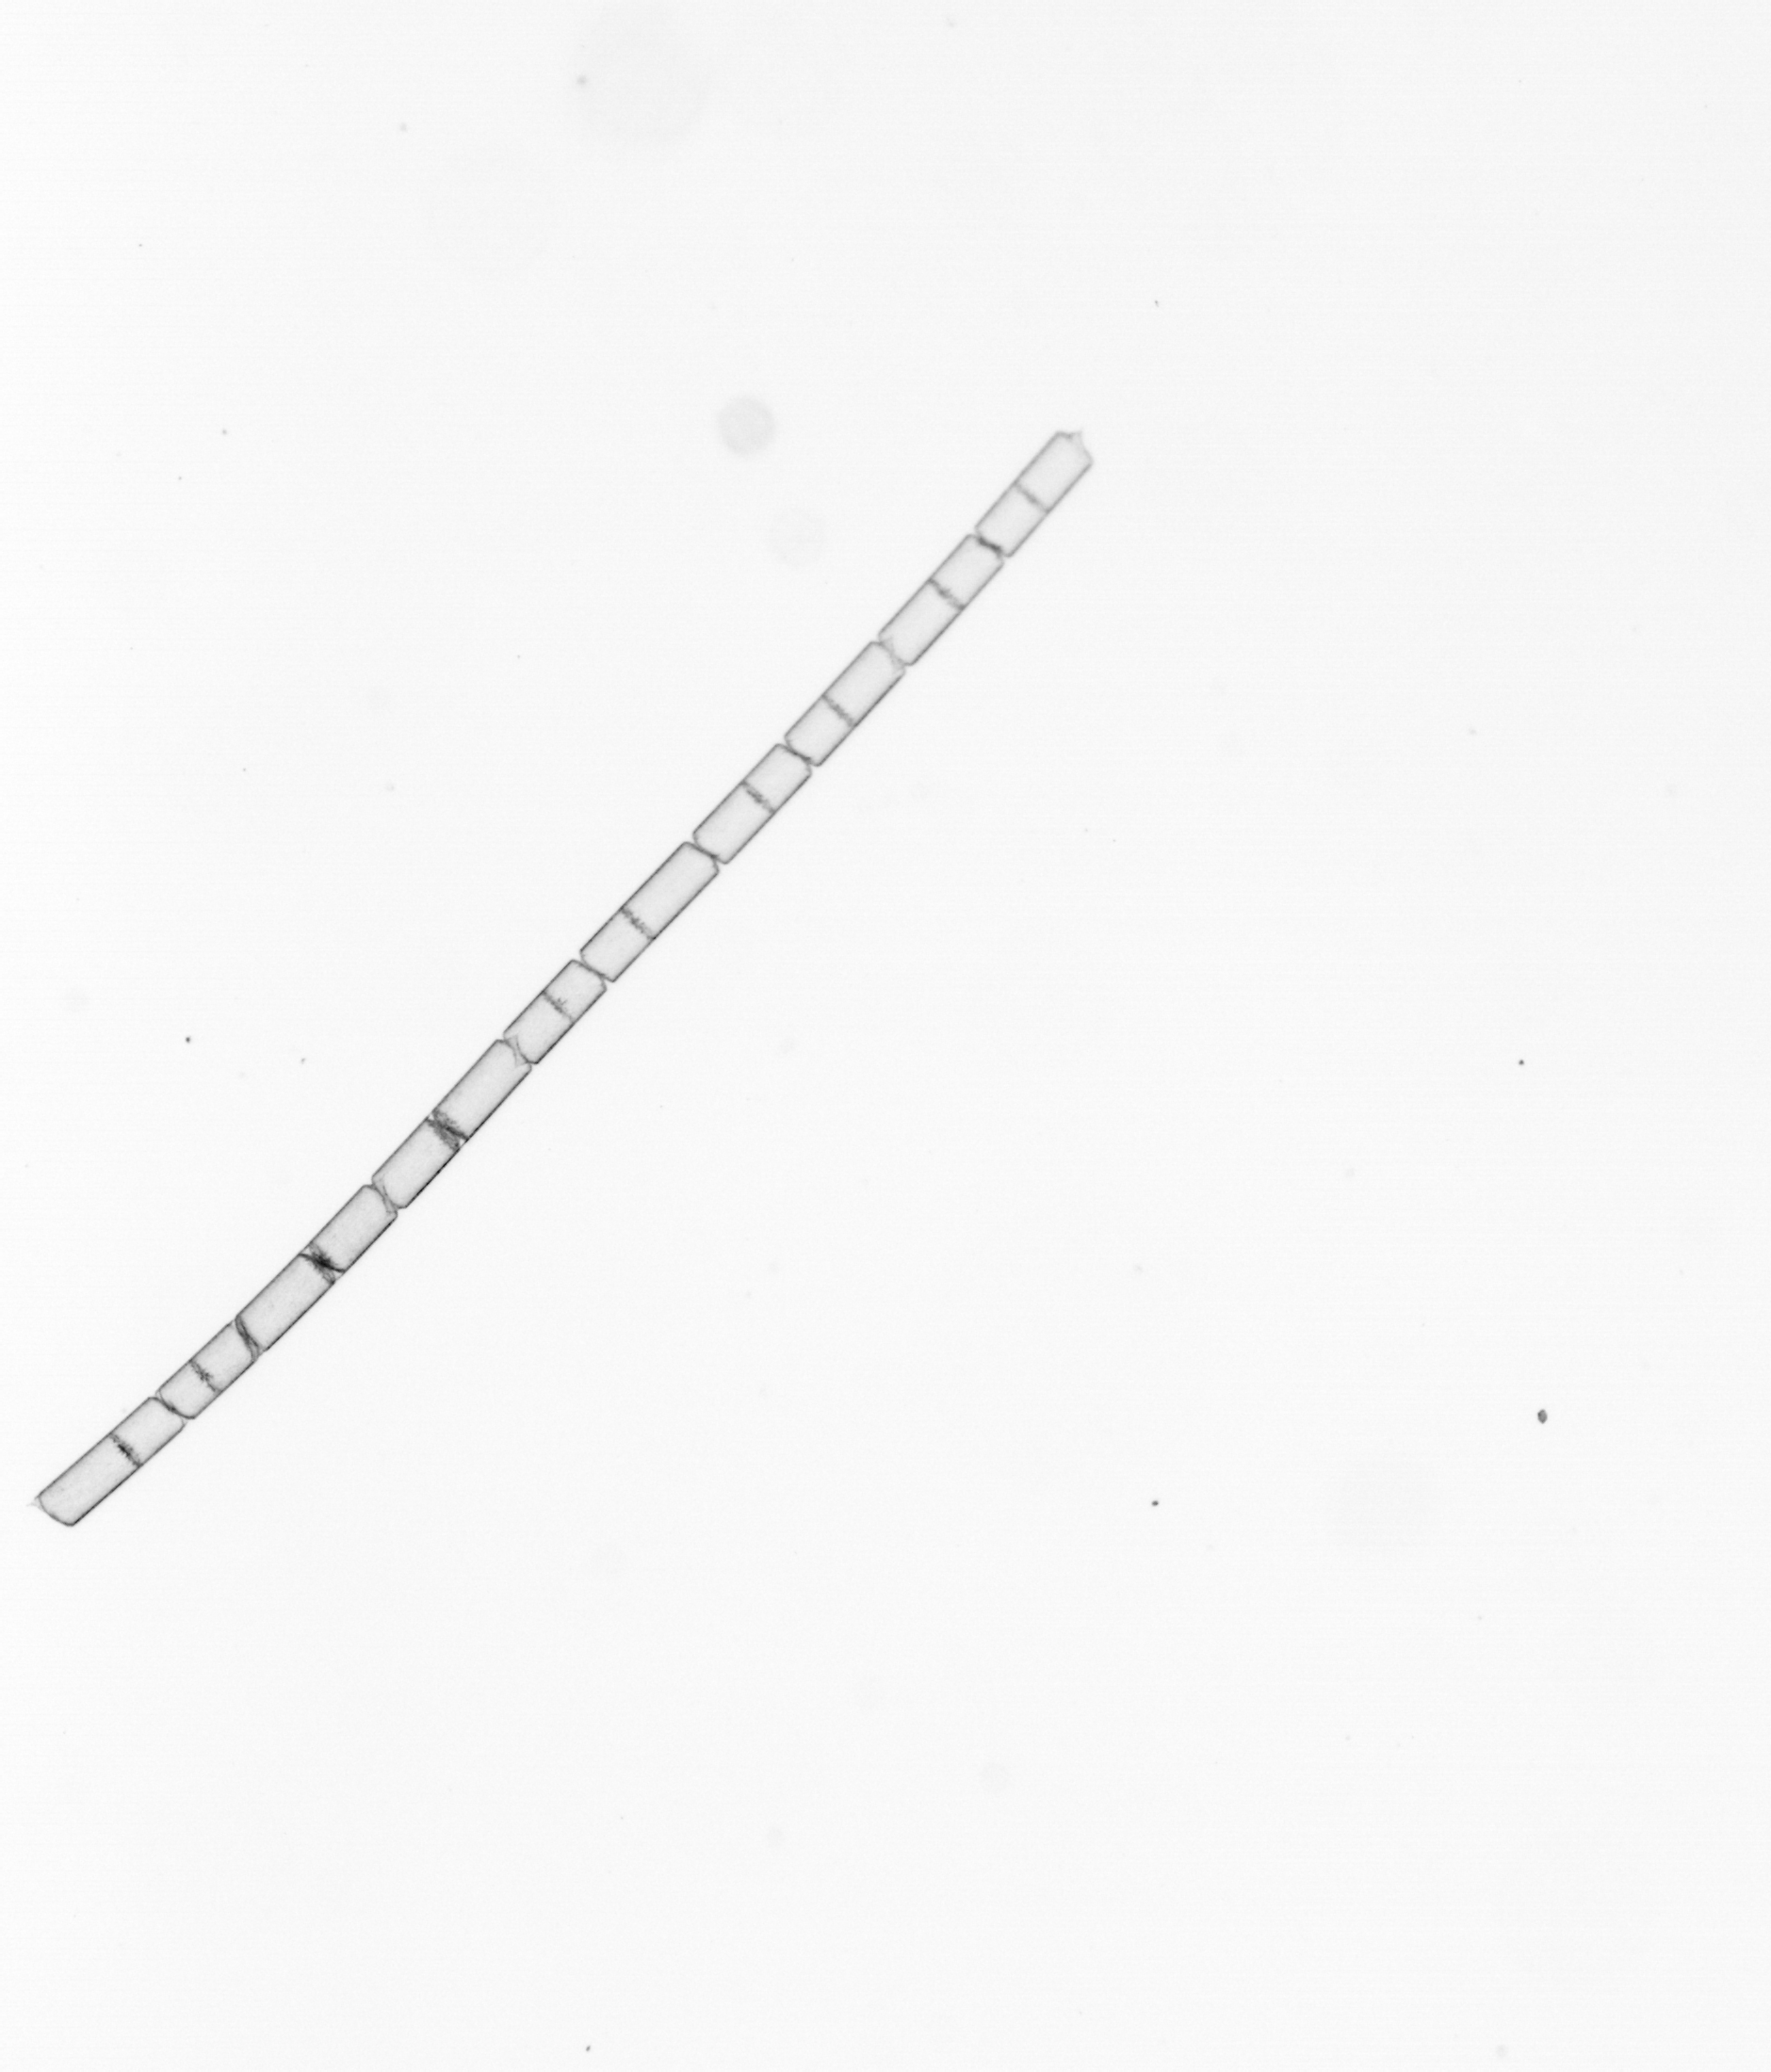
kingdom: Chromista
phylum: Ochrophyta
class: Bacillariophyceae
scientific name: Bacillariophyceae
